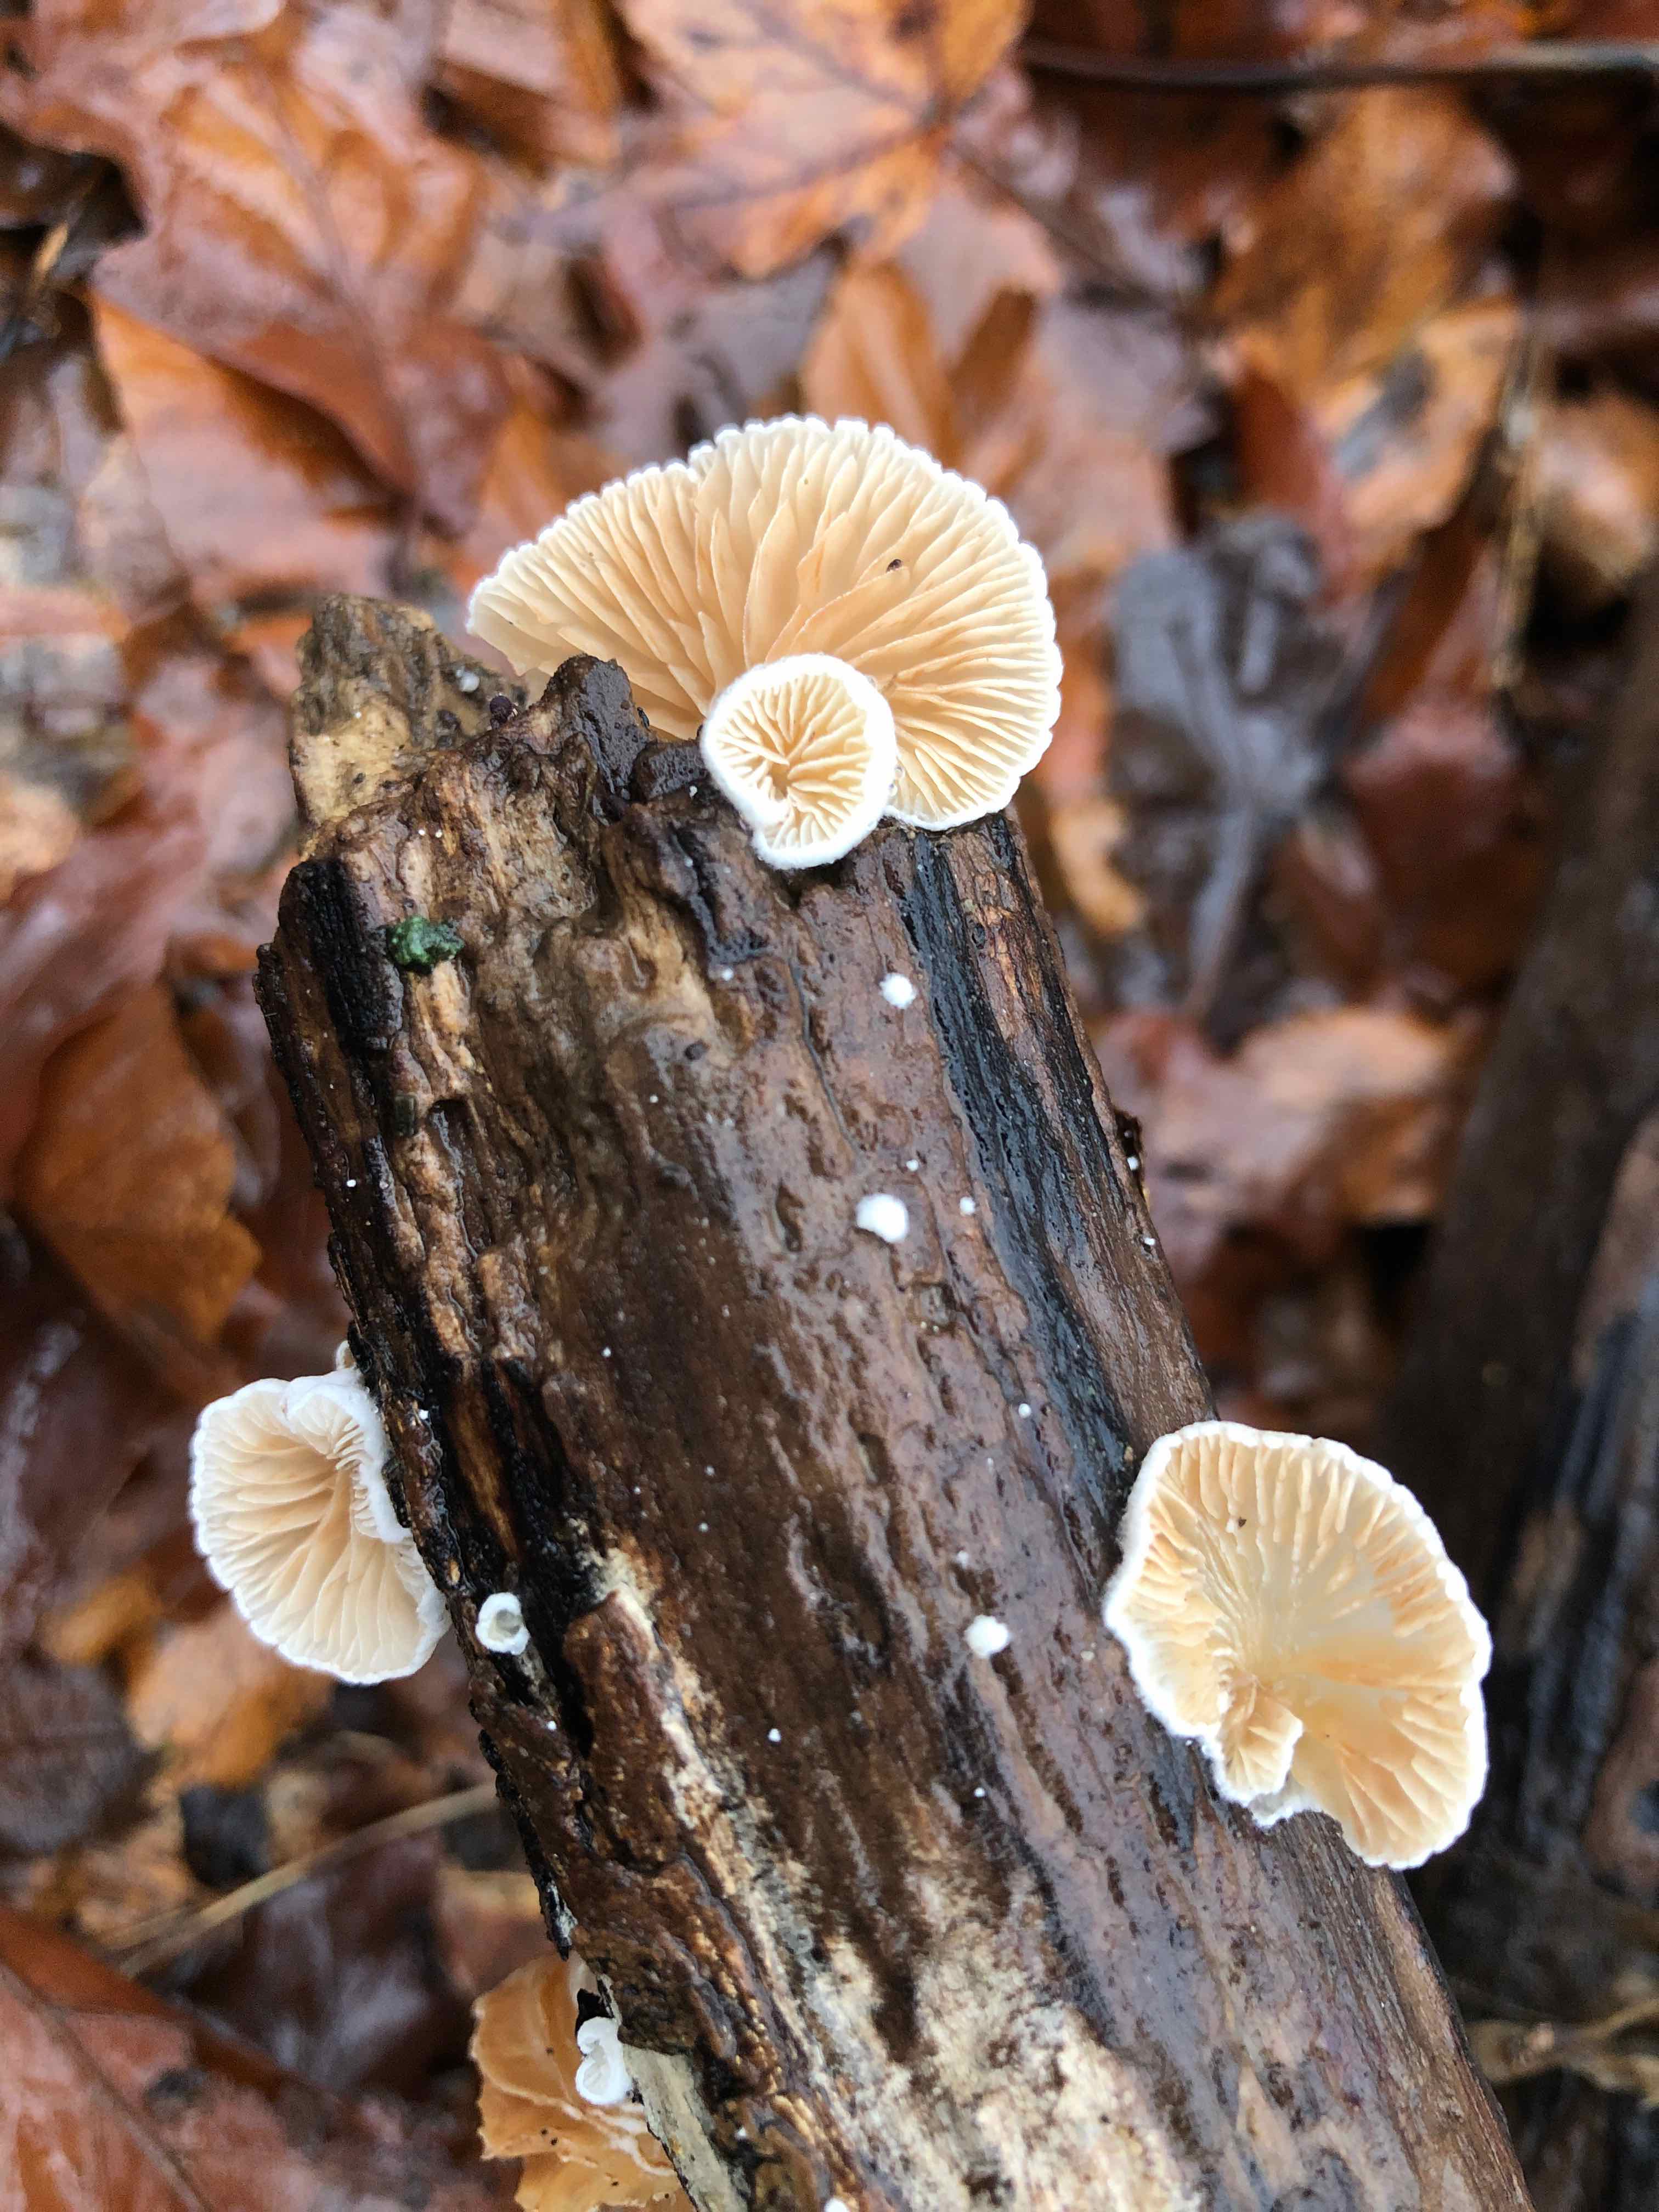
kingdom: Fungi
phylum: Basidiomycota
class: Agaricomycetes
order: Agaricales
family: Crepidotaceae
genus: Crepidotus
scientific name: Crepidotus cesatii
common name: almindelig muslingesvamp
